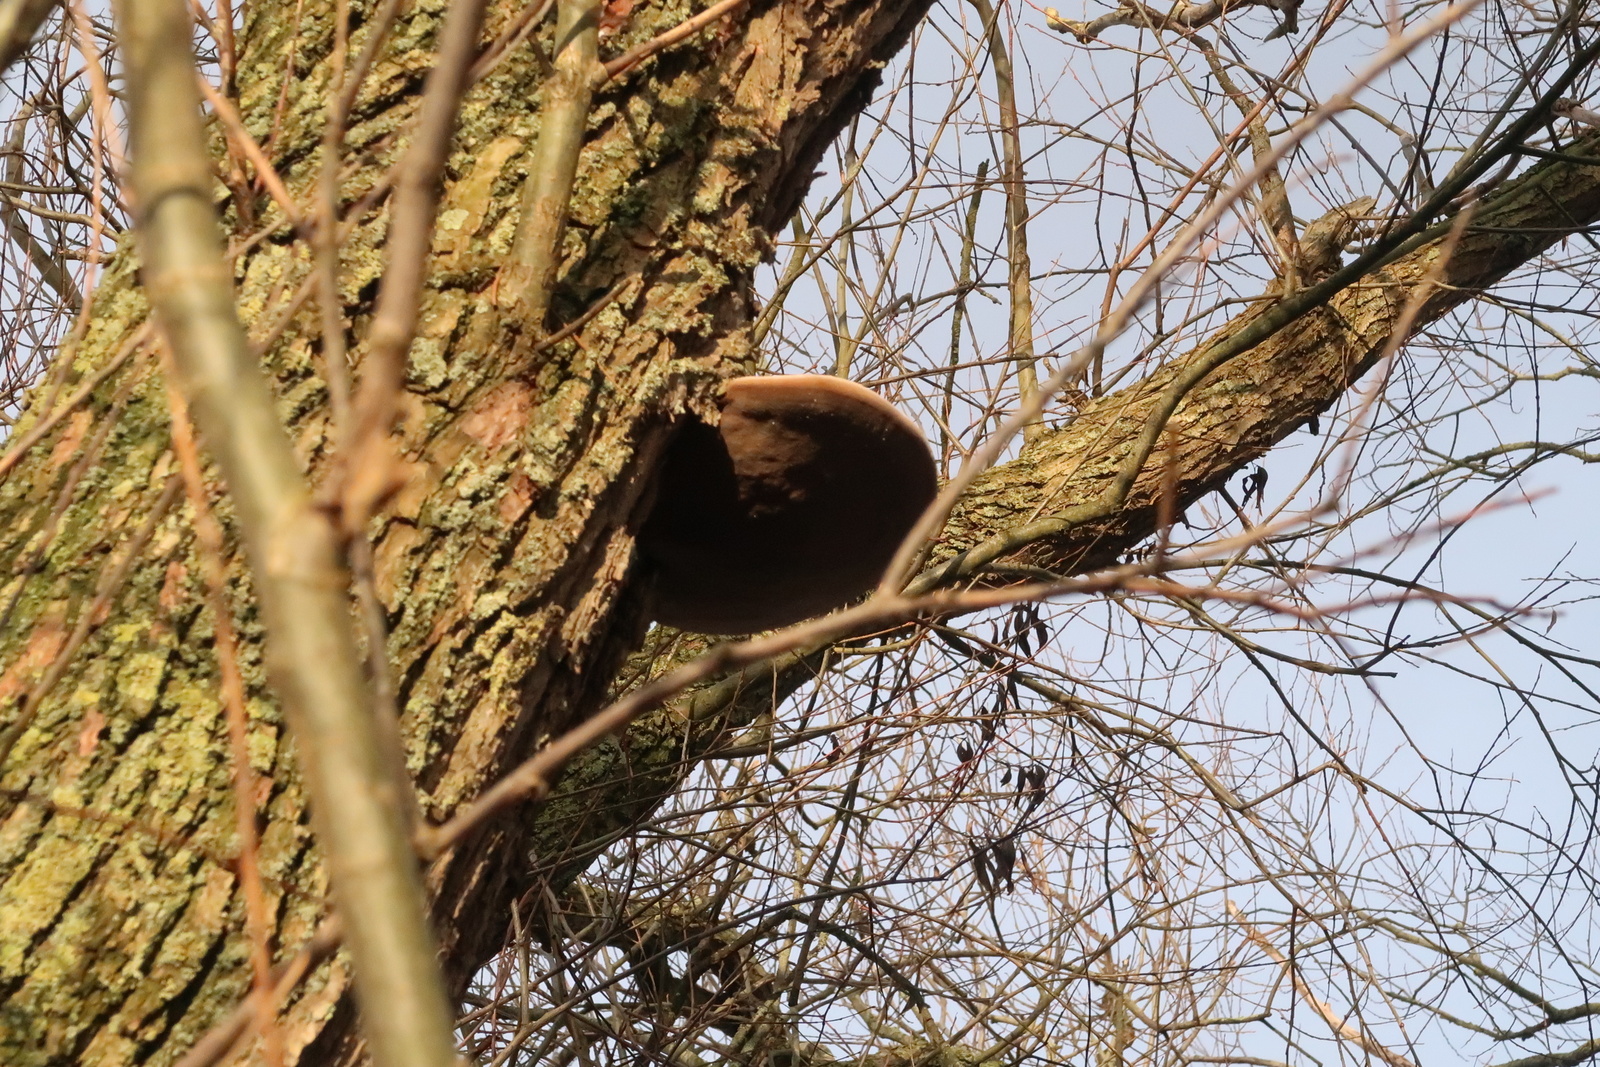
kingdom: Fungi
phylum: Basidiomycota
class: Agaricomycetes
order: Hymenochaetales
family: Hymenochaetaceae
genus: Phellinus
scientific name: Phellinus igniarius
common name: almindelig ildporesvamp
